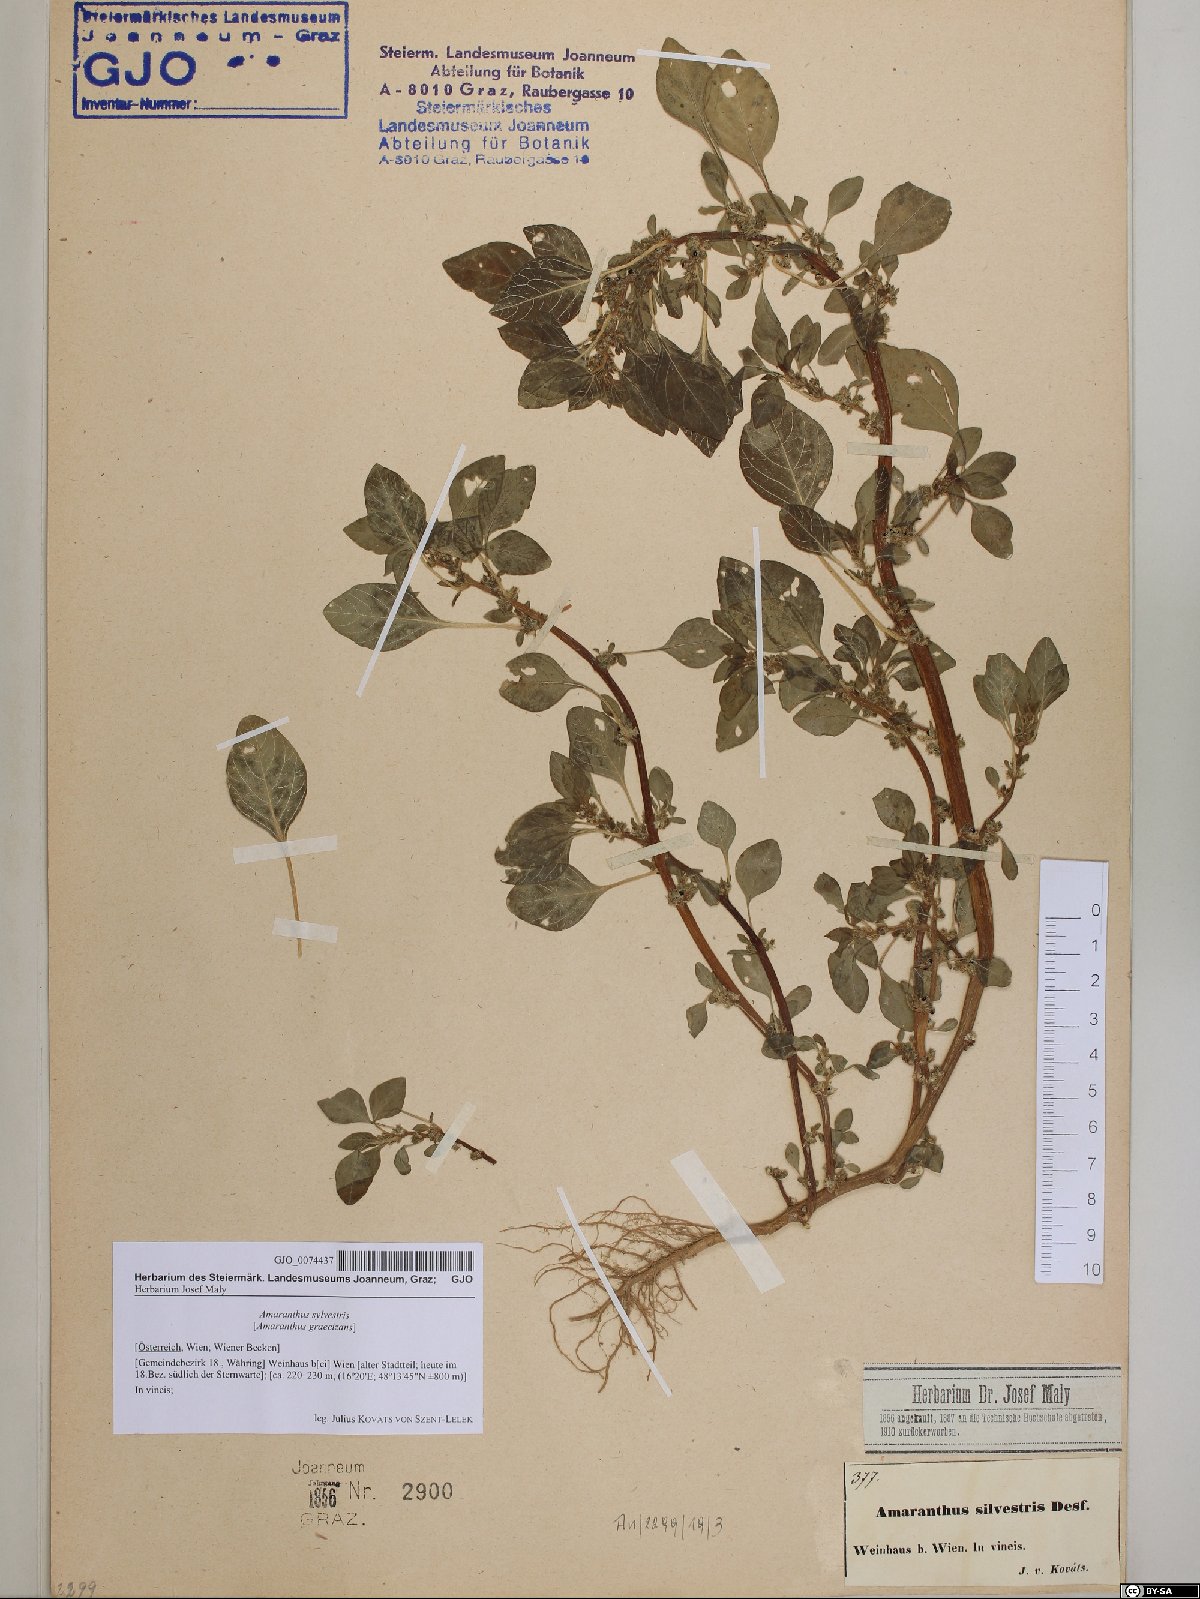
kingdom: Plantae
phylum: Tracheophyta
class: Magnoliopsida
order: Caryophyllales
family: Amaranthaceae
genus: Amaranthus
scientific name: Amaranthus graecizans
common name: Mediterranean amaranth
